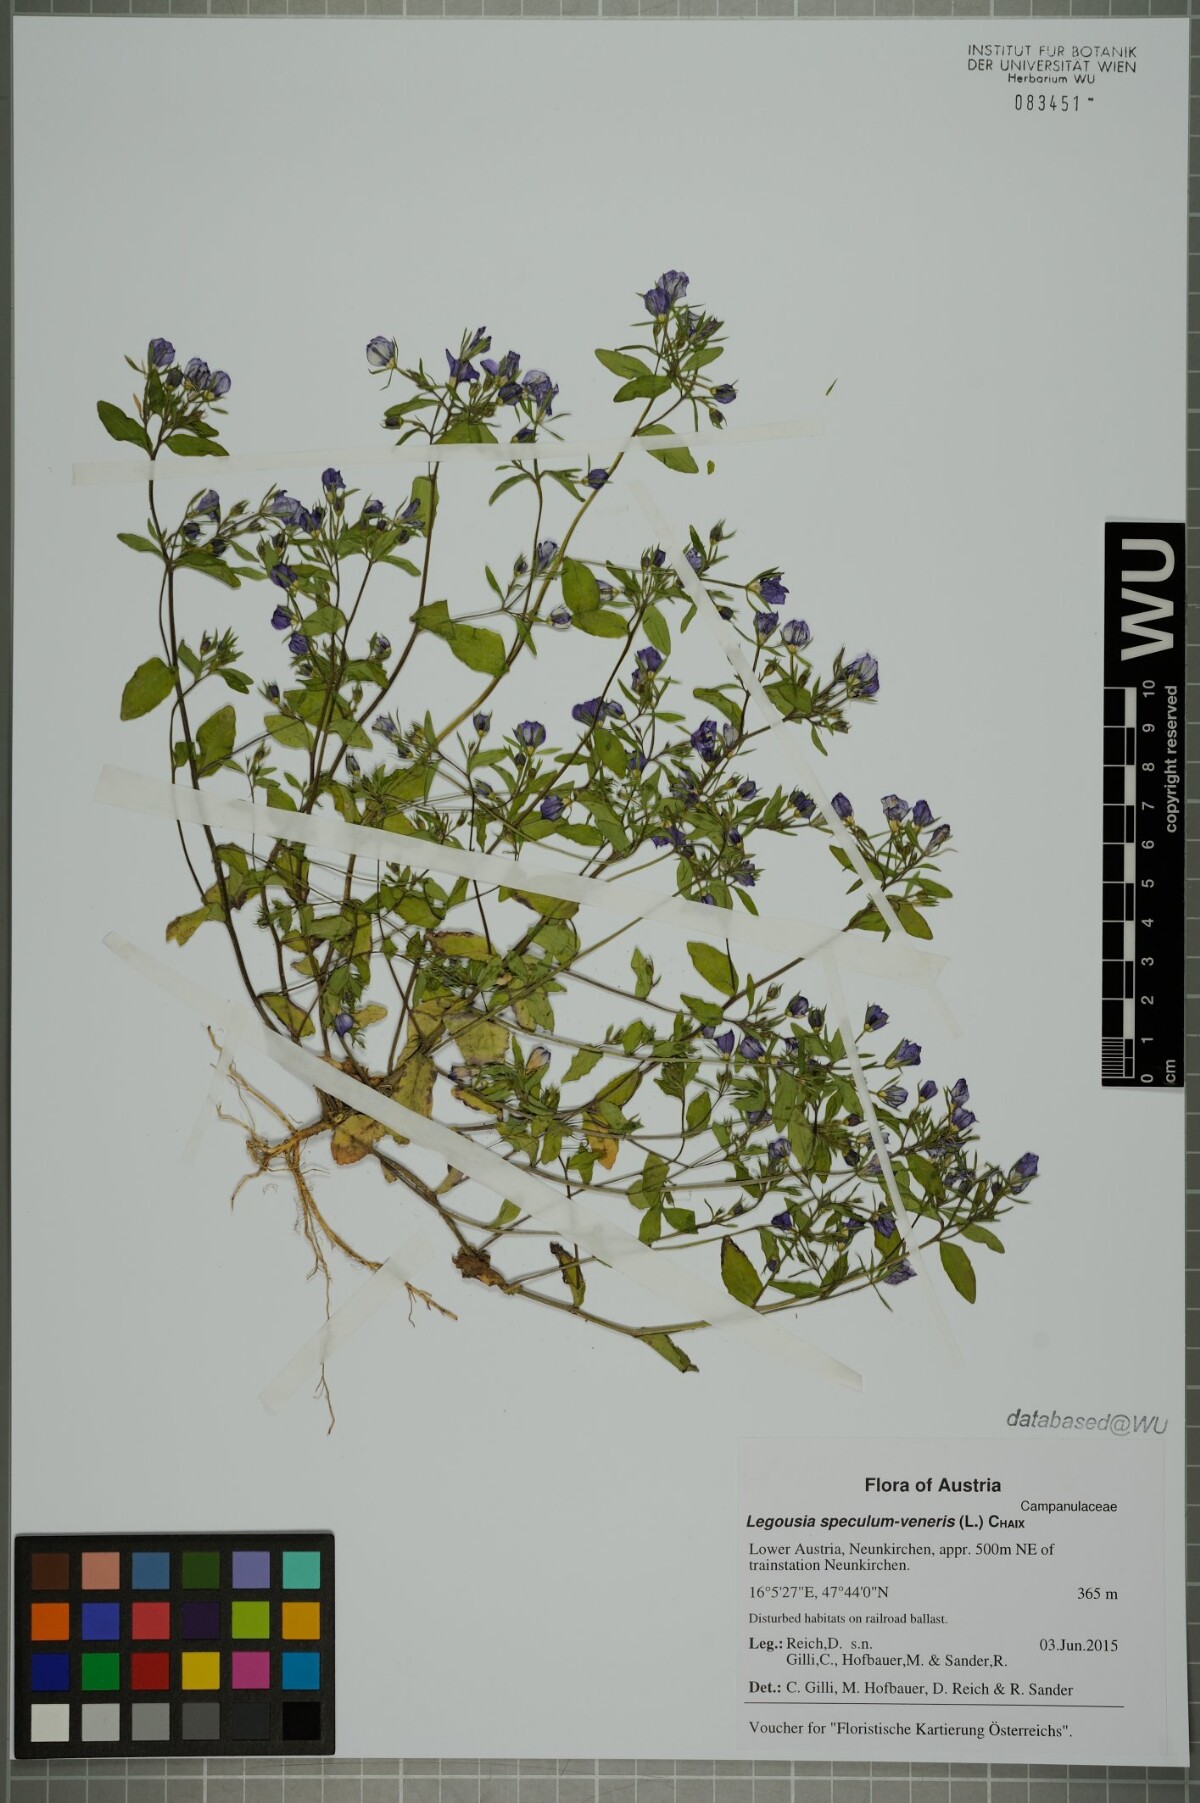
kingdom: Plantae
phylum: Tracheophyta
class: Magnoliopsida
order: Asterales
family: Campanulaceae
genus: Legousia
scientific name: Legousia speculum-veneris
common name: Large venus's-looking-glass
